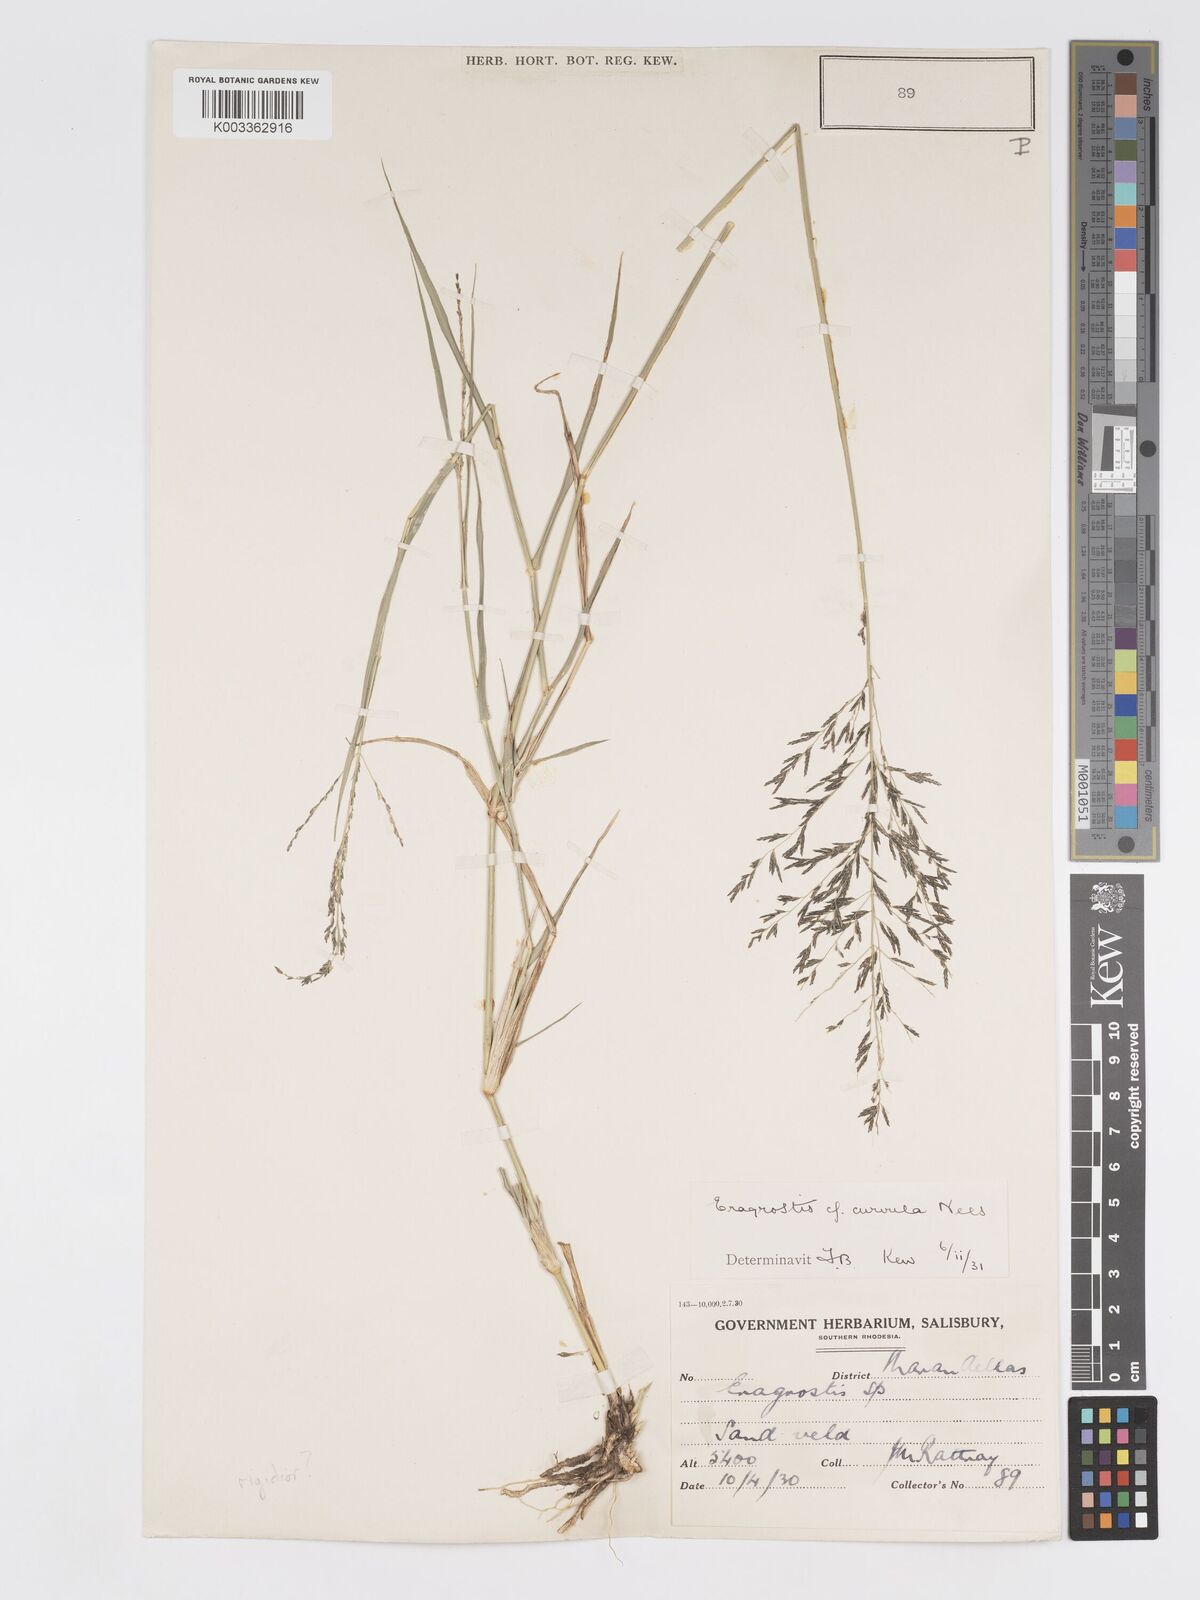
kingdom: Plantae
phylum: Tracheophyta
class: Liliopsida
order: Poales
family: Poaceae
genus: Eragrostis
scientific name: Eragrostis cylindriflora
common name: Cylinderflower lovegrass
